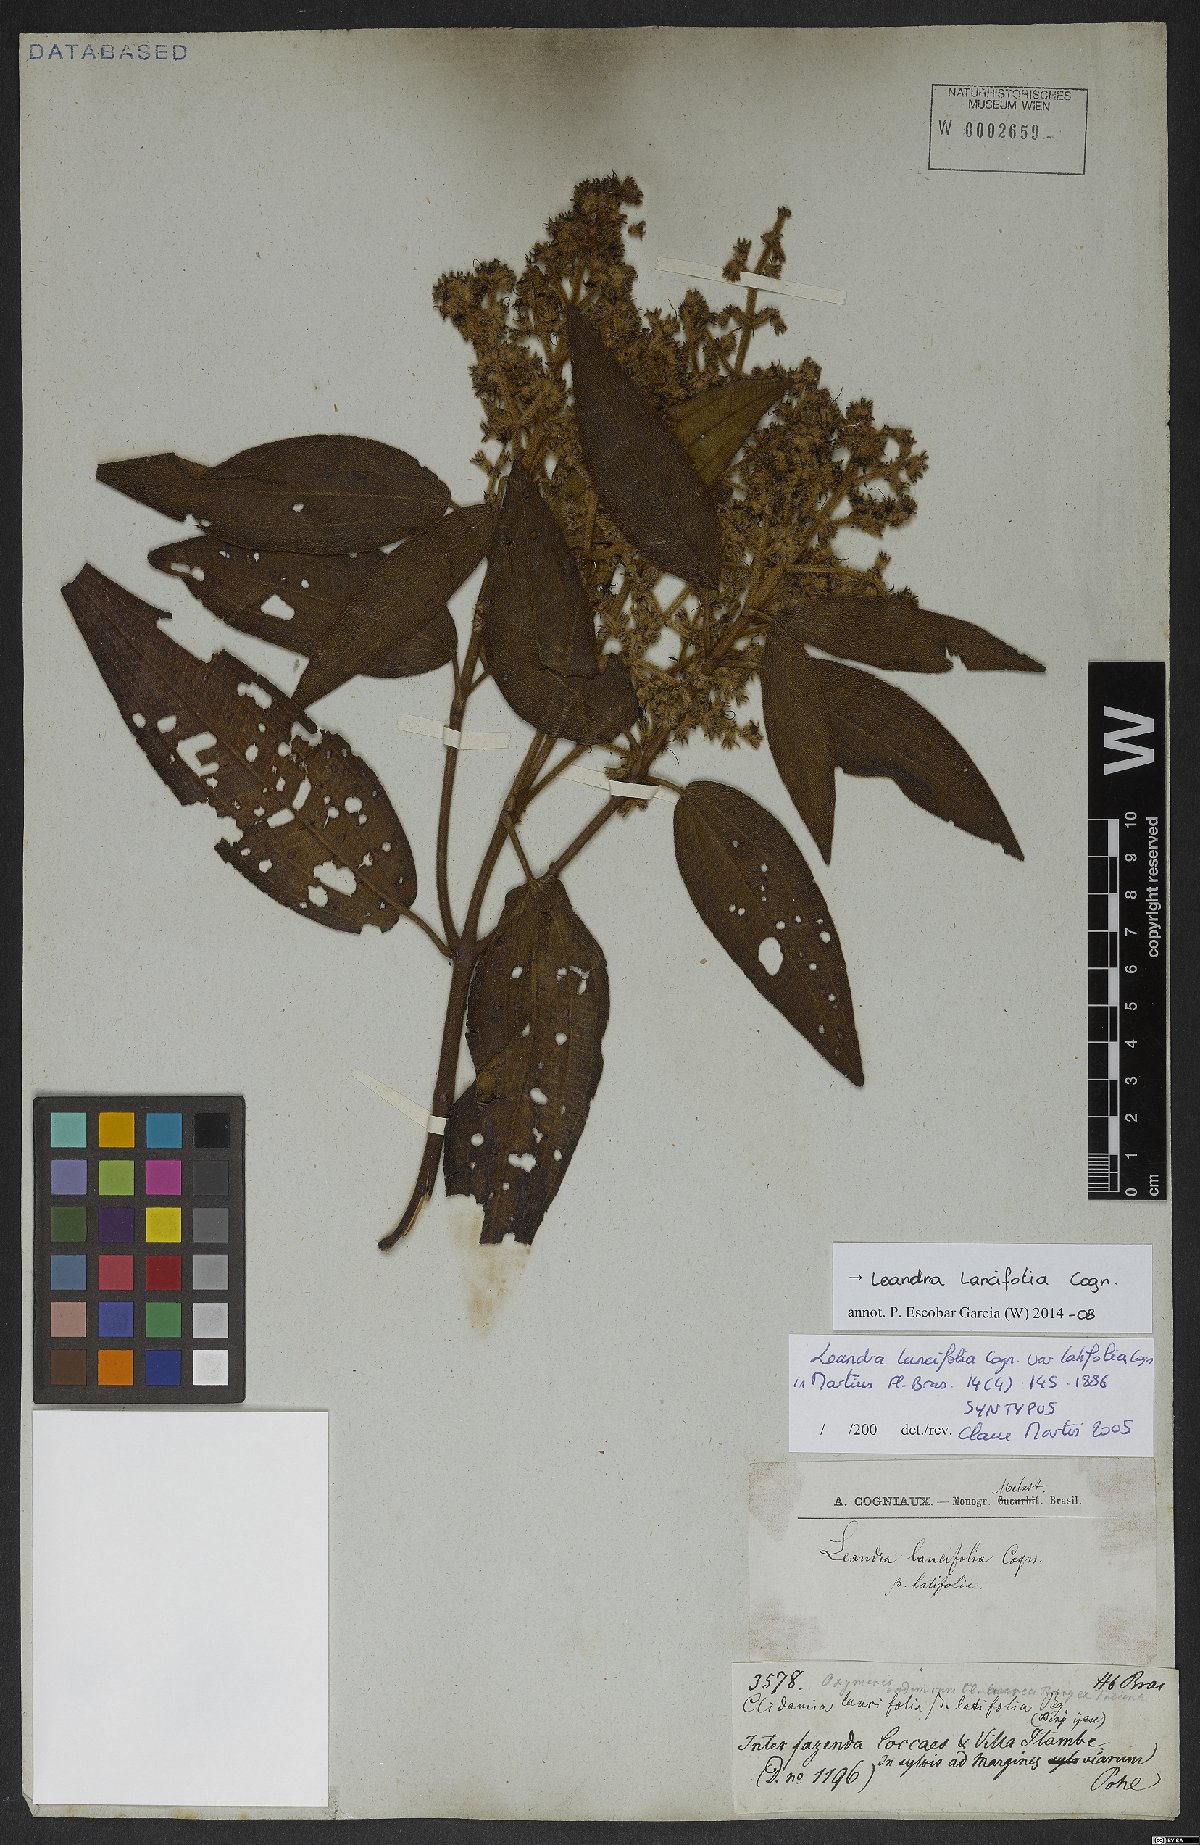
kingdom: Plantae
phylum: Tracheophyta
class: Magnoliopsida
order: Myrtales
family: Melastomataceae
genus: Miconia
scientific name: Miconia lealancifolia
